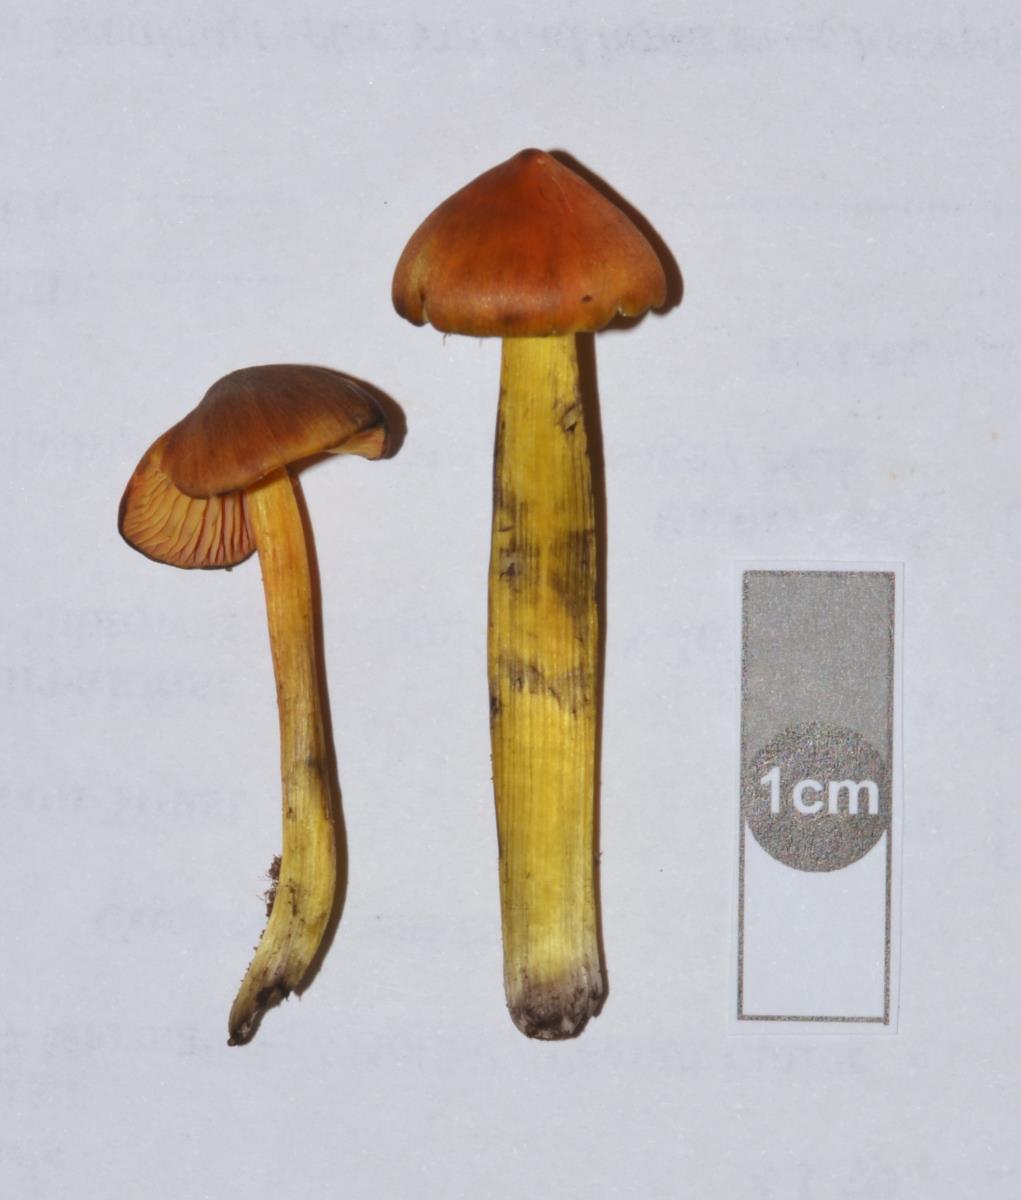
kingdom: Fungi
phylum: Basidiomycota
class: Agaricomycetes
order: Agaricales
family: Hygrophoraceae
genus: Hygrocybe
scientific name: Hygrocybe conicoides
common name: Dune waxcap
